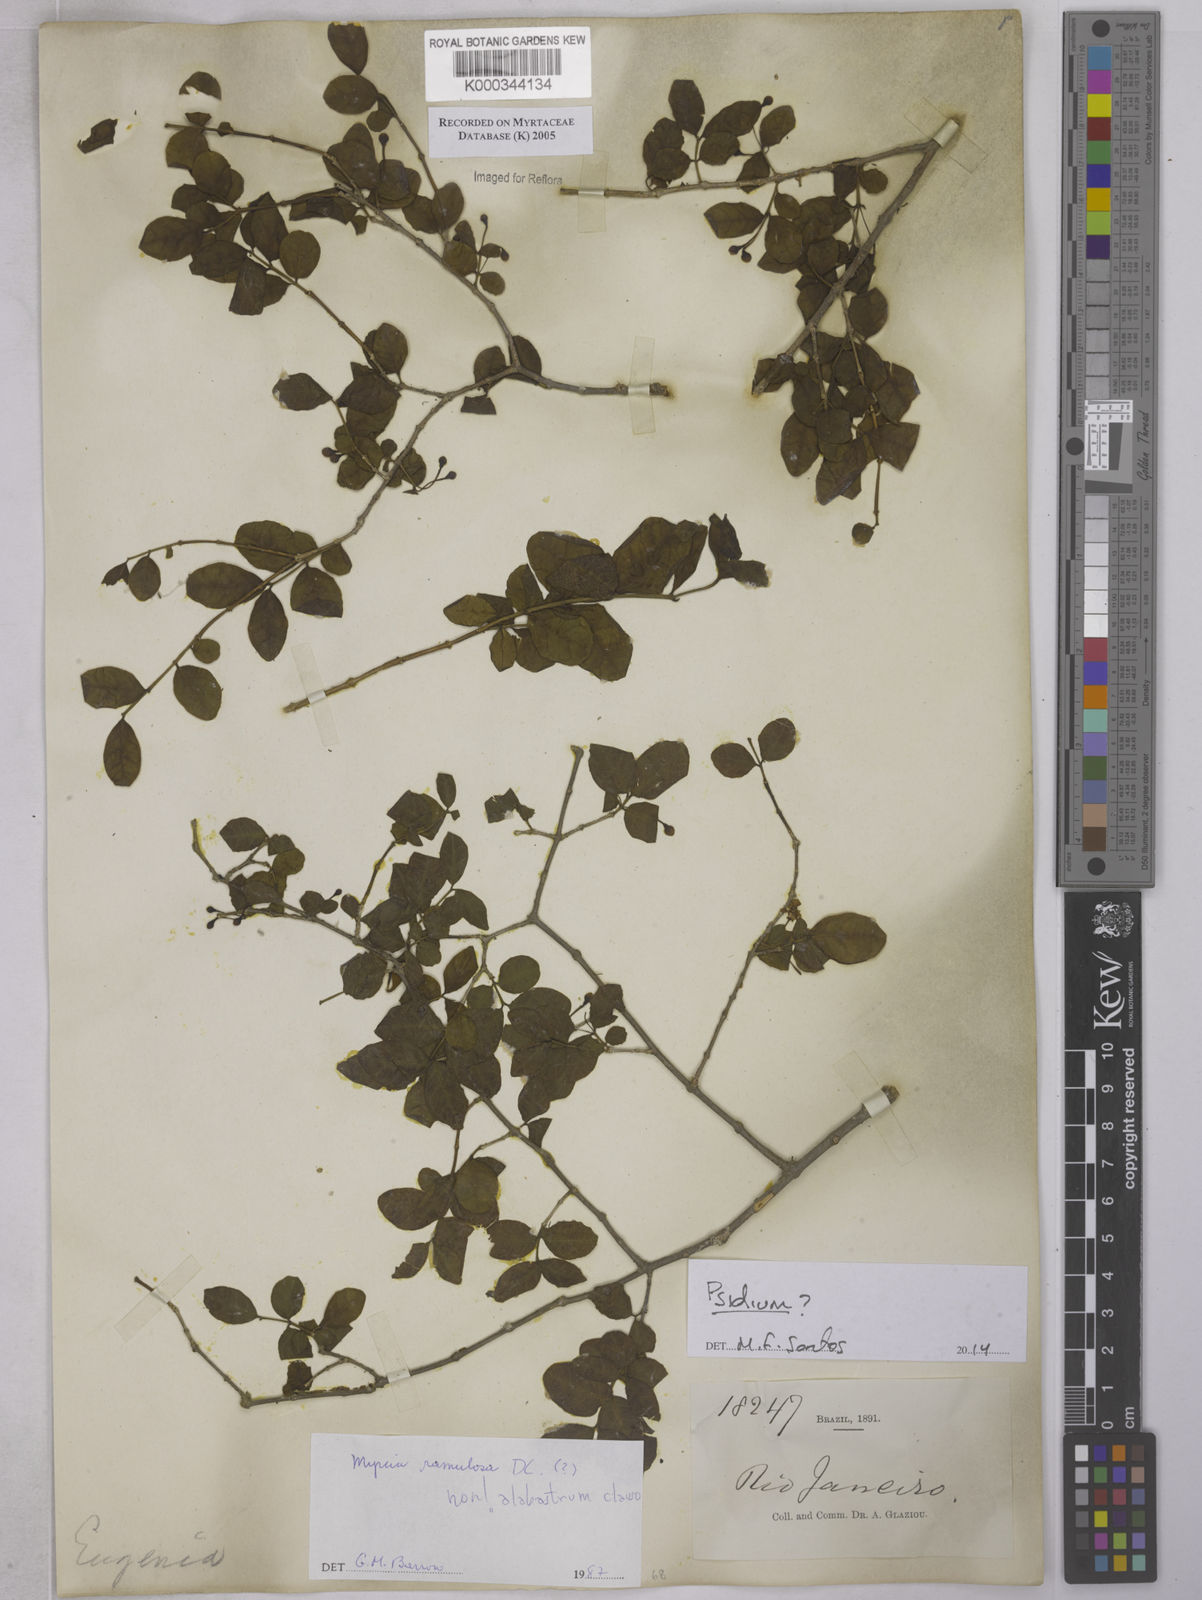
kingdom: Plantae
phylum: Tracheophyta
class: Magnoliopsida
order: Myrtales
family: Myrtaceae
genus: Myrcia
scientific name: Myrcia selloi
